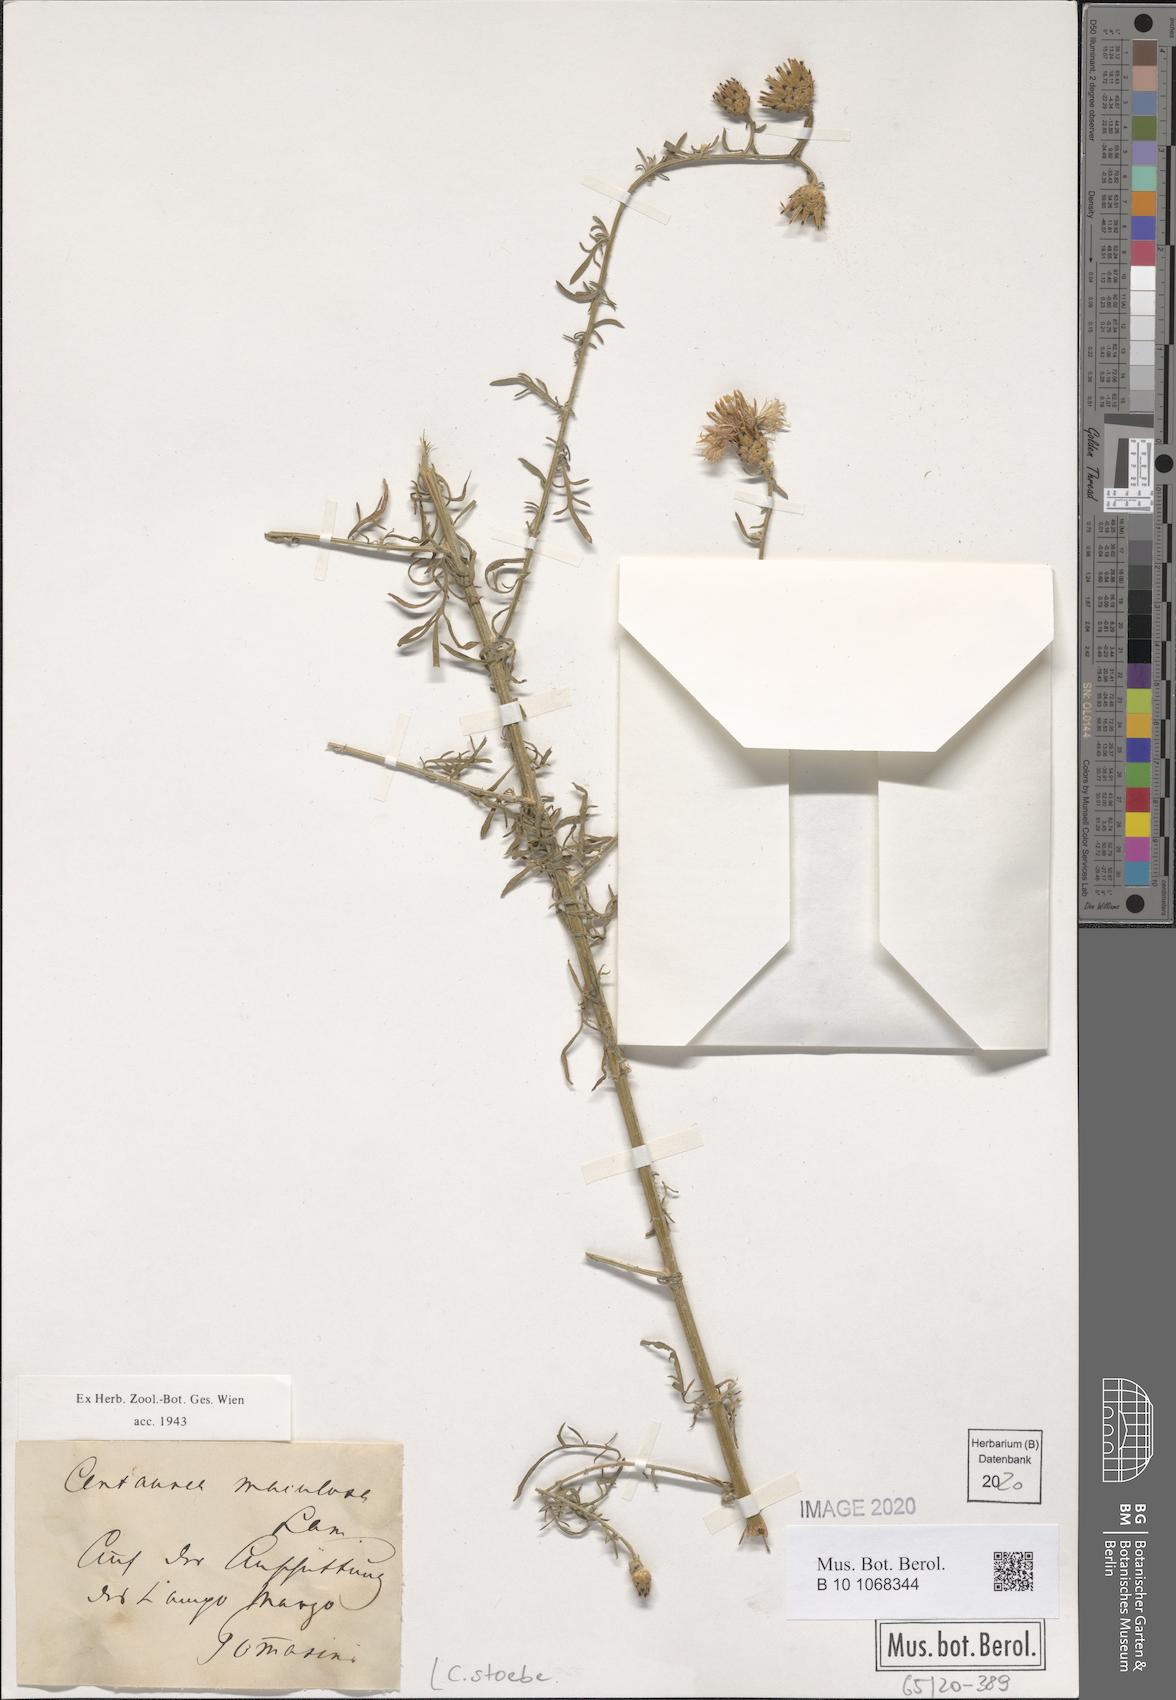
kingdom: Plantae
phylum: Tracheophyta
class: Magnoliopsida
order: Asterales
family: Asteraceae
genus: Centaurea
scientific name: Centaurea stoebe
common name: Spotted knapweed
